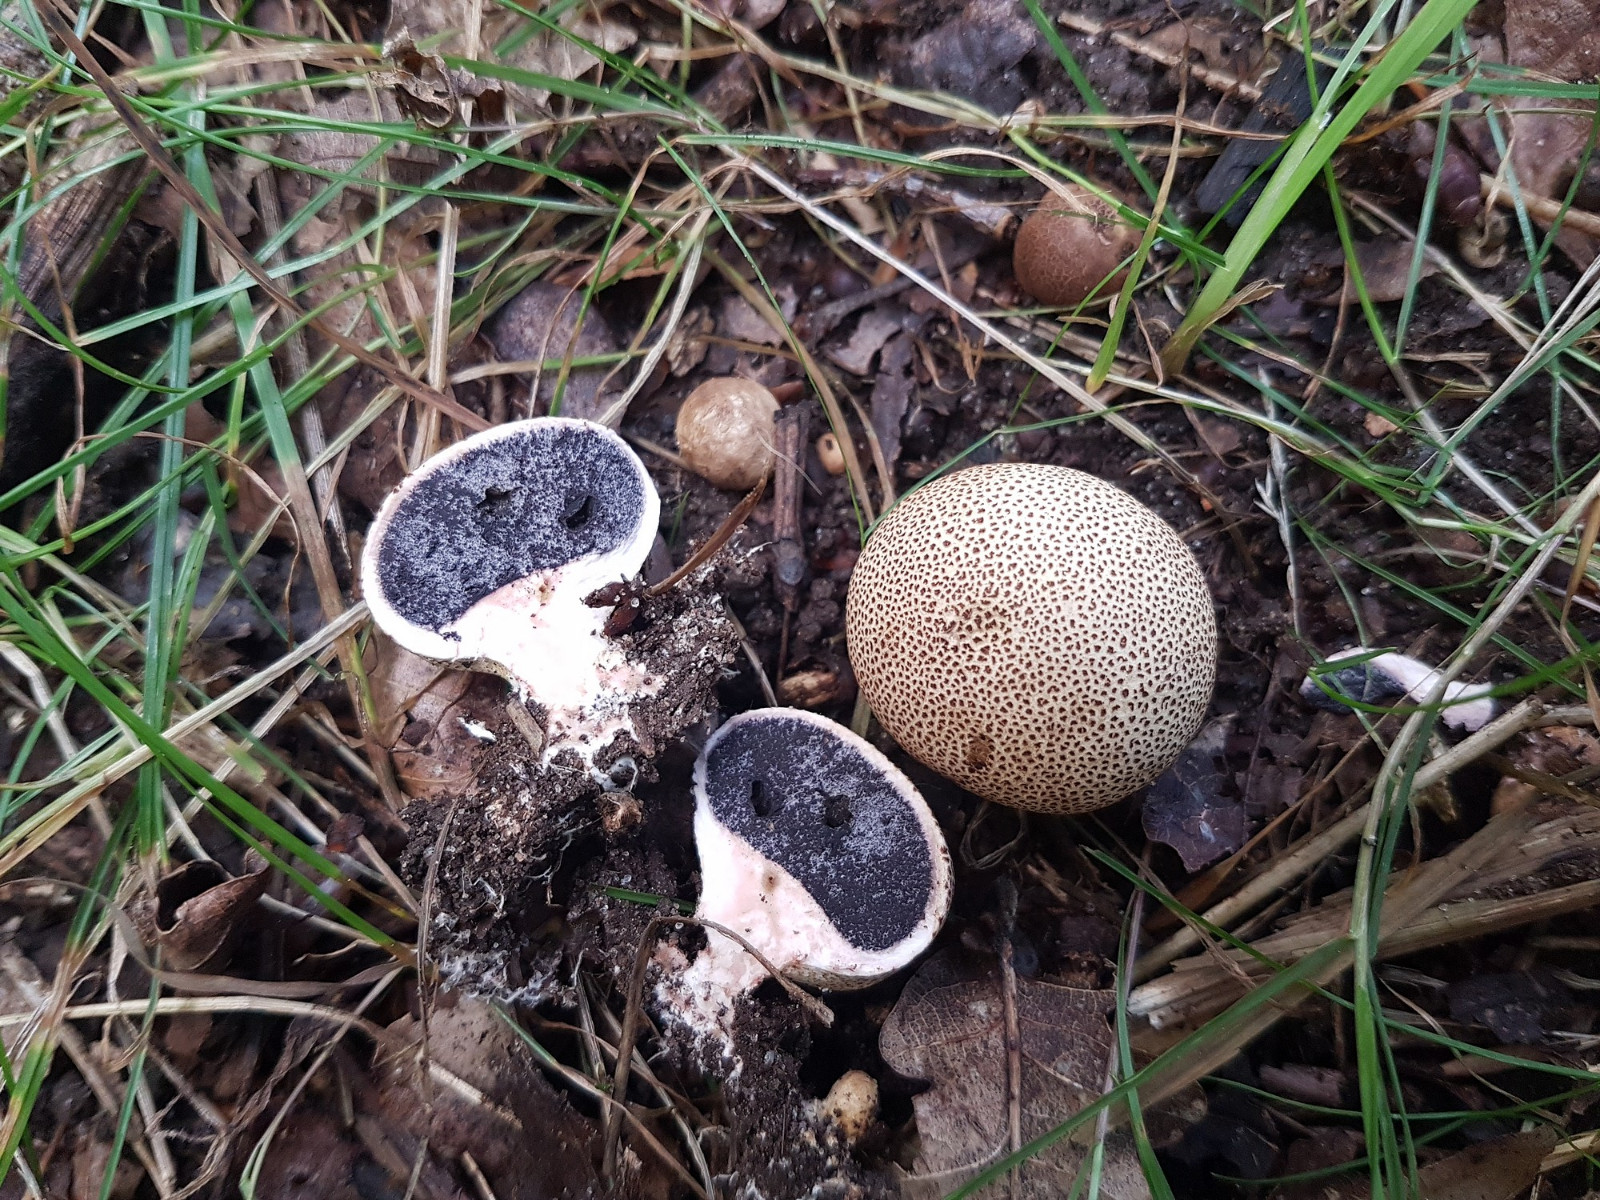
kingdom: Fungi
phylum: Basidiomycota
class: Agaricomycetes
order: Boletales
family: Sclerodermataceae
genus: Scleroderma
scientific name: Scleroderma areolatum
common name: plettet bruskbold
